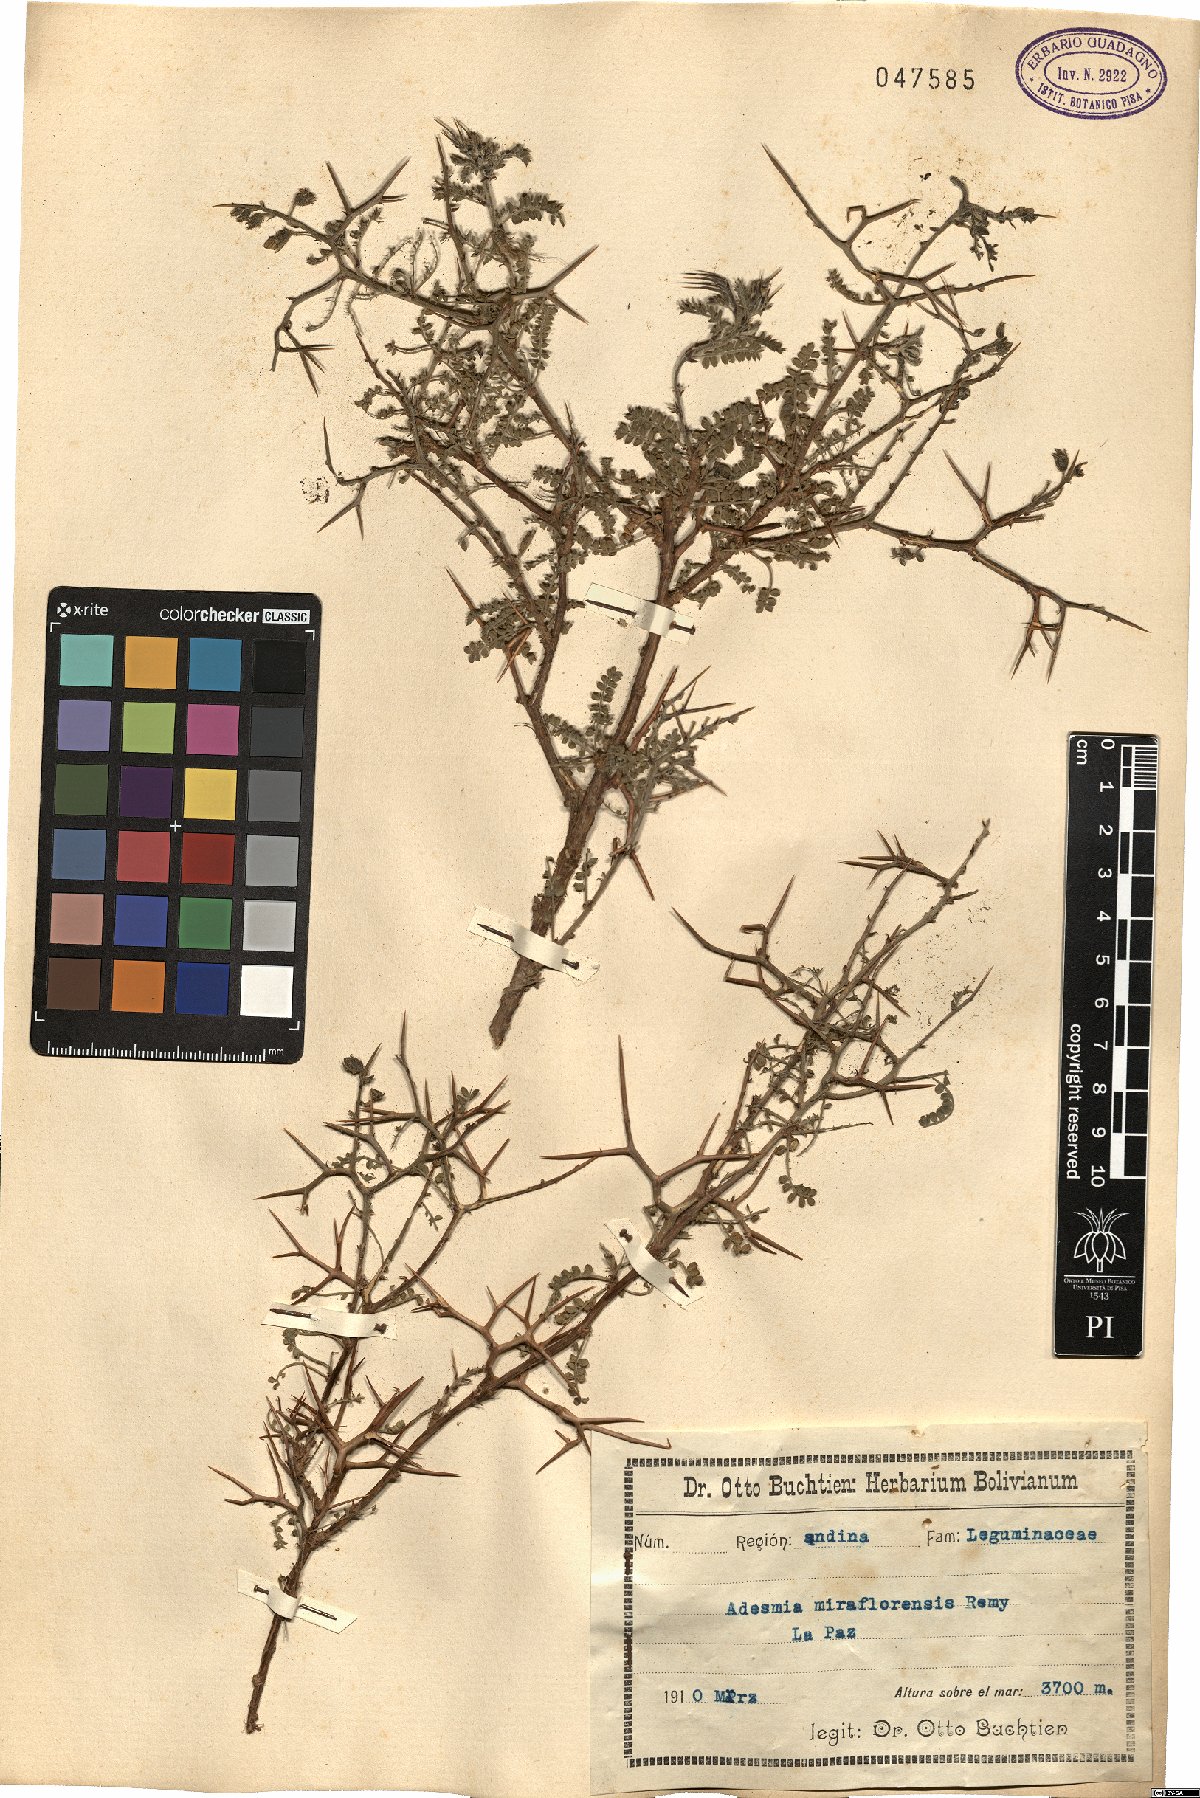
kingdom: Plantae
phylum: Tracheophyta
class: Magnoliopsida
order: Fabales
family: Fabaceae
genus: Adesmia
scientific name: Adesmia miraflorensis
